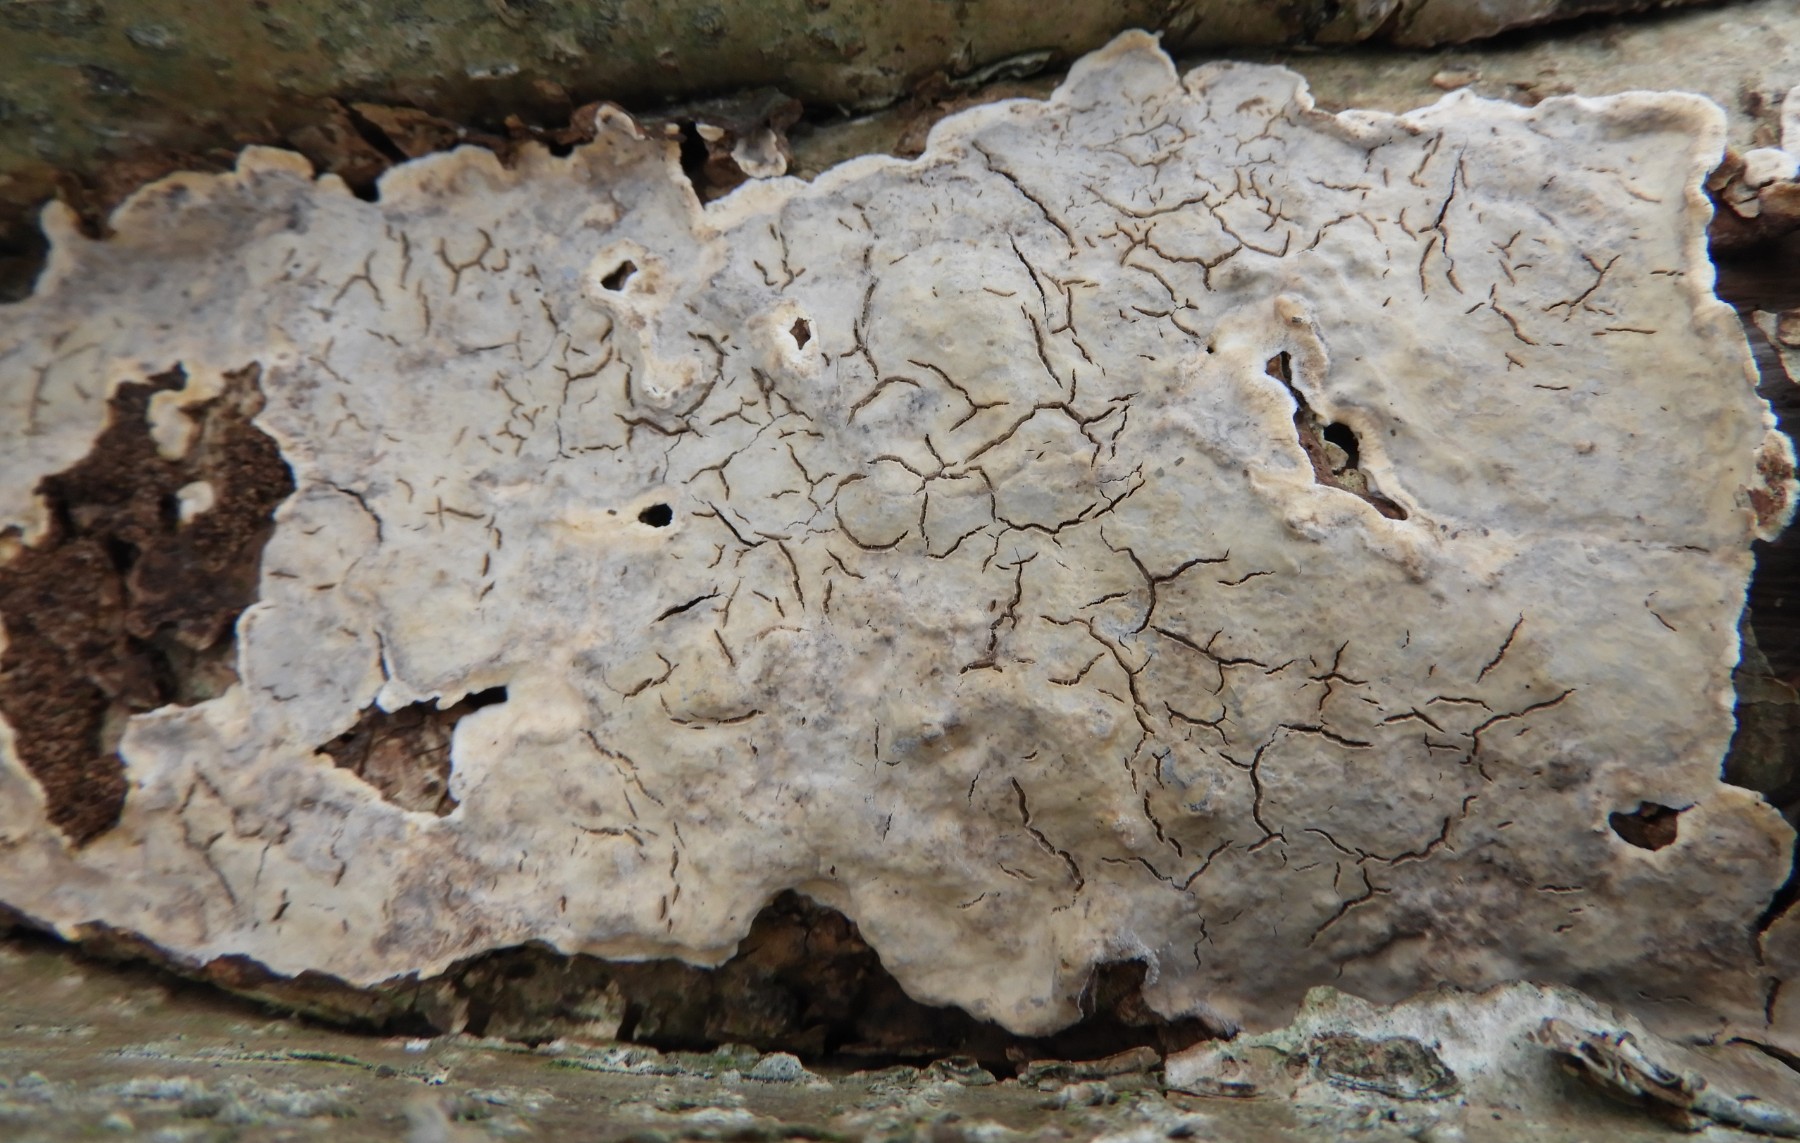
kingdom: Fungi
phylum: Basidiomycota
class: Agaricomycetes
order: Agaricales
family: Physalacriaceae
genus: Cylindrobasidium
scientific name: Cylindrobasidium evolvens
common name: sprækkehinde
